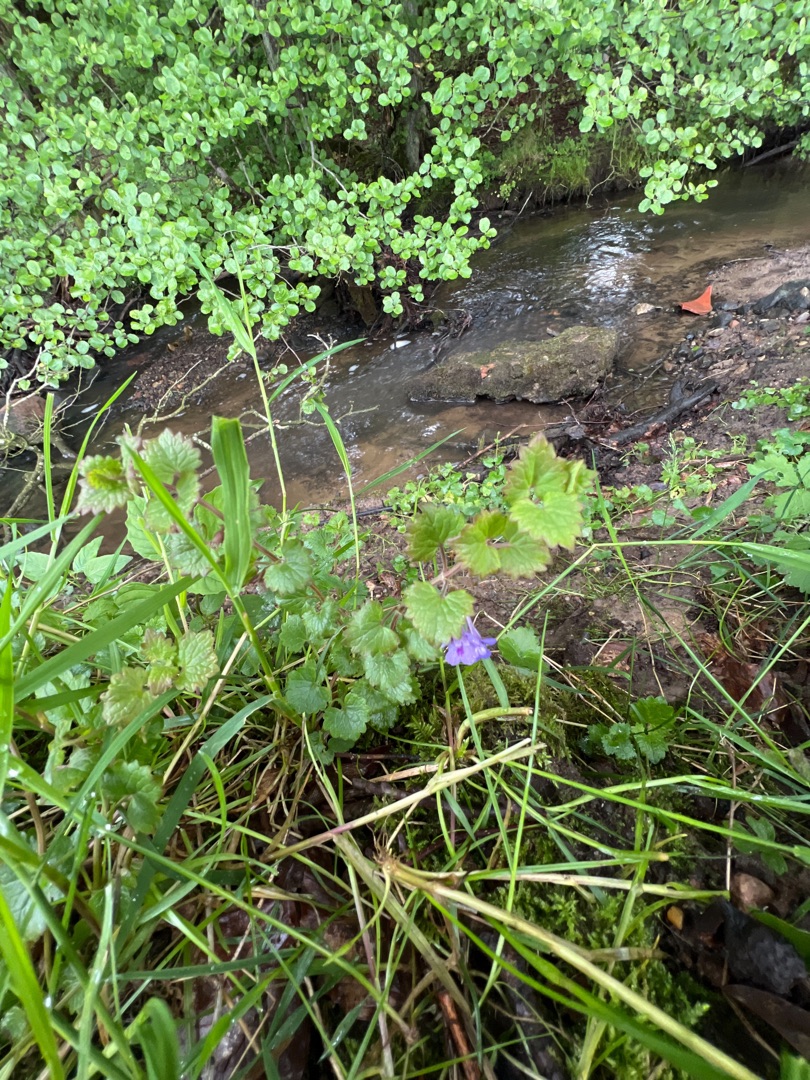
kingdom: Plantae
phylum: Tracheophyta
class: Magnoliopsida
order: Lamiales
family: Lamiaceae
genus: Glechoma
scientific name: Glechoma hederacea
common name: Korsknap
